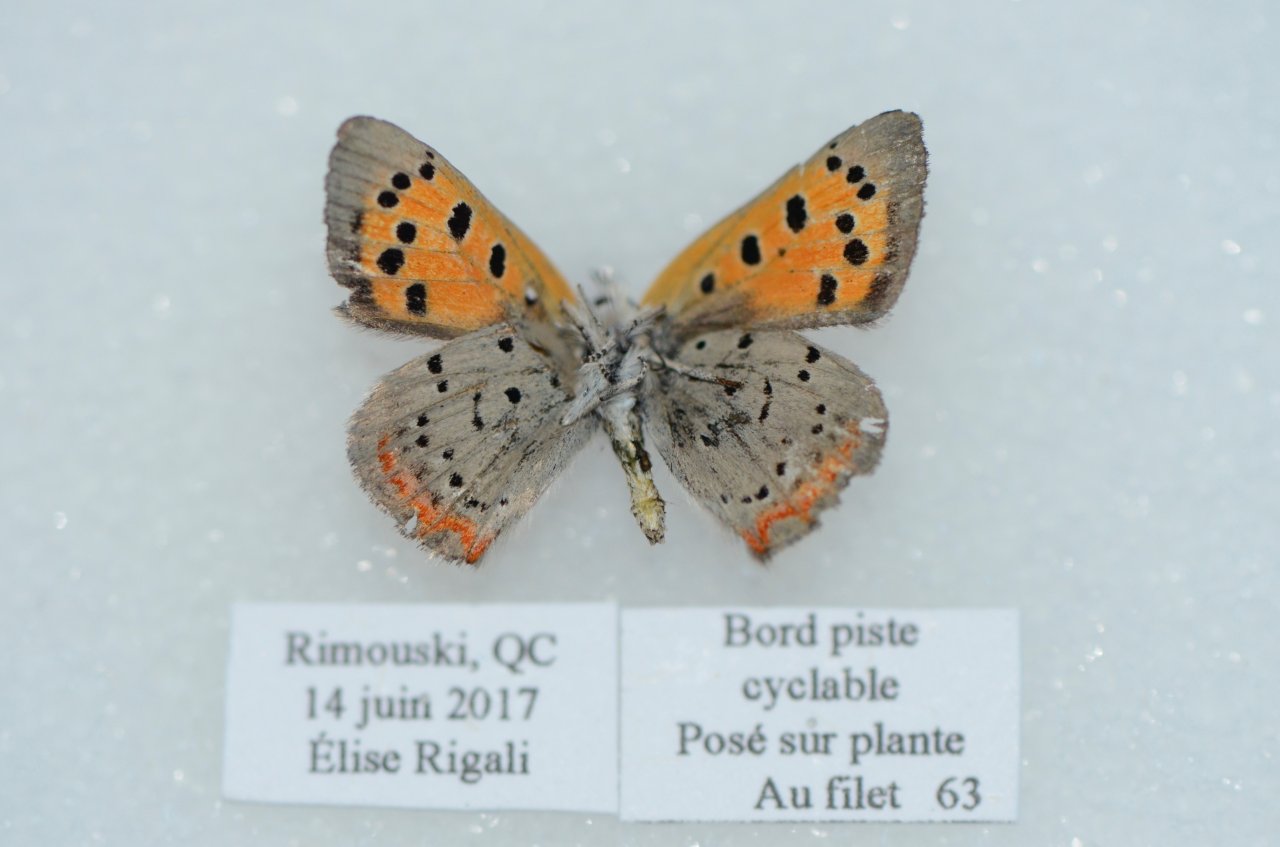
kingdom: Animalia
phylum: Arthropoda
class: Insecta
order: Lepidoptera
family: Lycaenidae
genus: Lycaena
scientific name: Lycaena phlaeas
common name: American Copper
